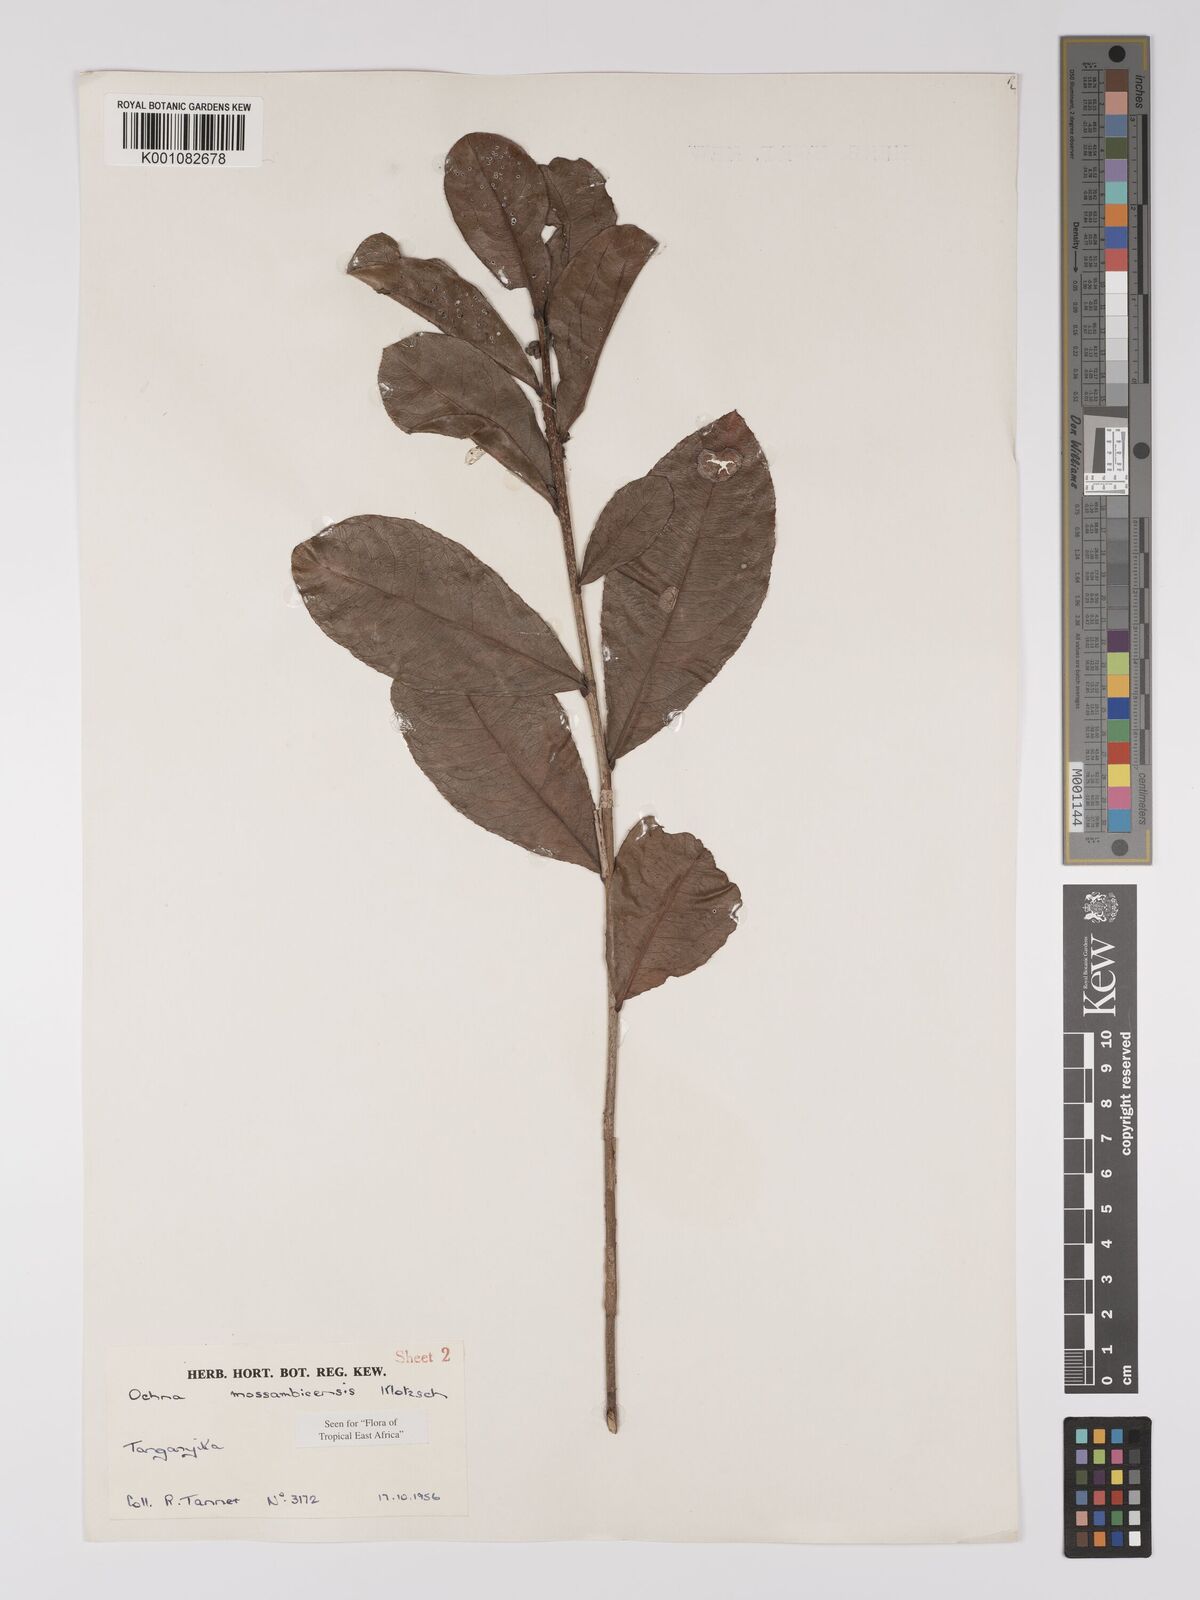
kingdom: Plantae
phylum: Tracheophyta
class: Magnoliopsida
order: Malpighiales
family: Ochnaceae
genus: Ochna
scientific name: Ochna atropurpurea
